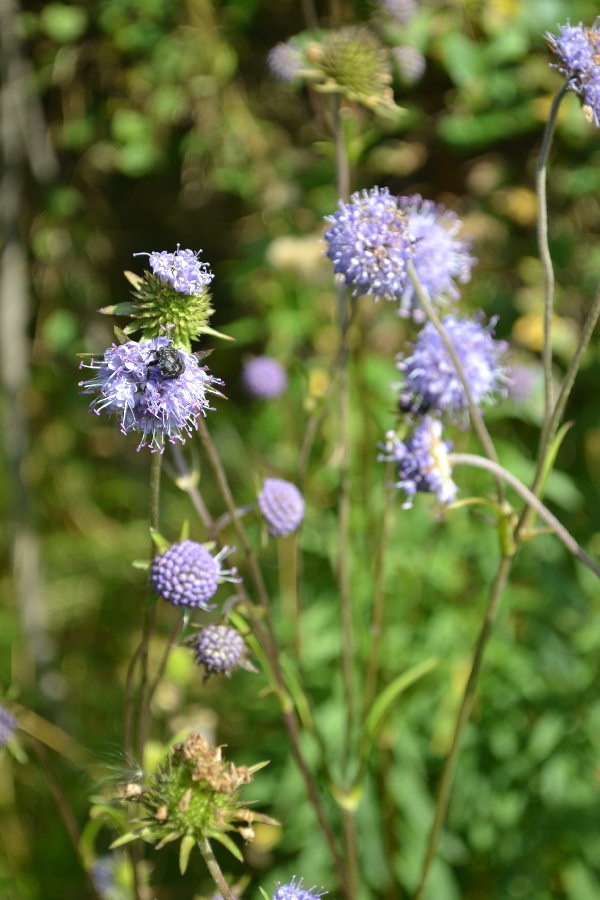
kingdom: Plantae
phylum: Tracheophyta
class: Magnoliopsida
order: Dipsacales
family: Caprifoliaceae
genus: Succisa
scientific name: Succisa pratensis
